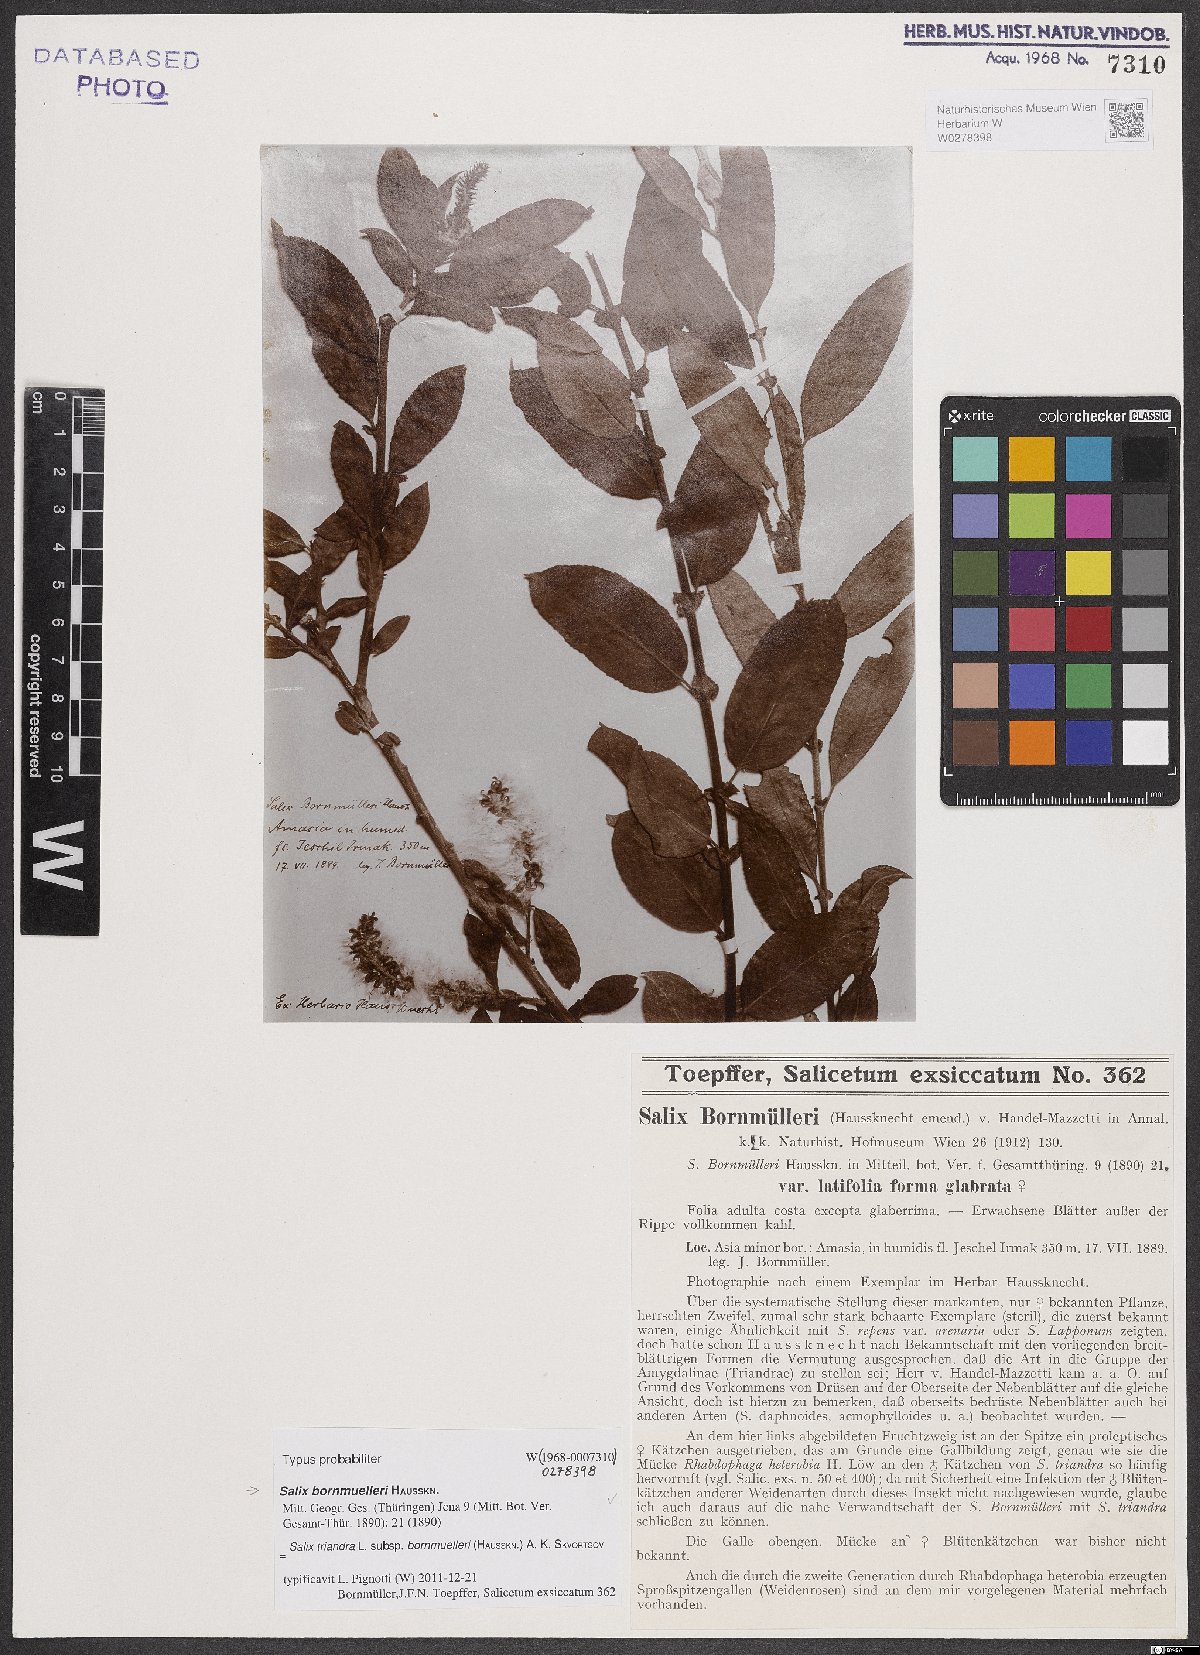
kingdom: Plantae
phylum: Tracheophyta
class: Magnoliopsida
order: Malpighiales
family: Salicaceae
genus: Salix
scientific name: Salix triandra
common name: Almond willow
